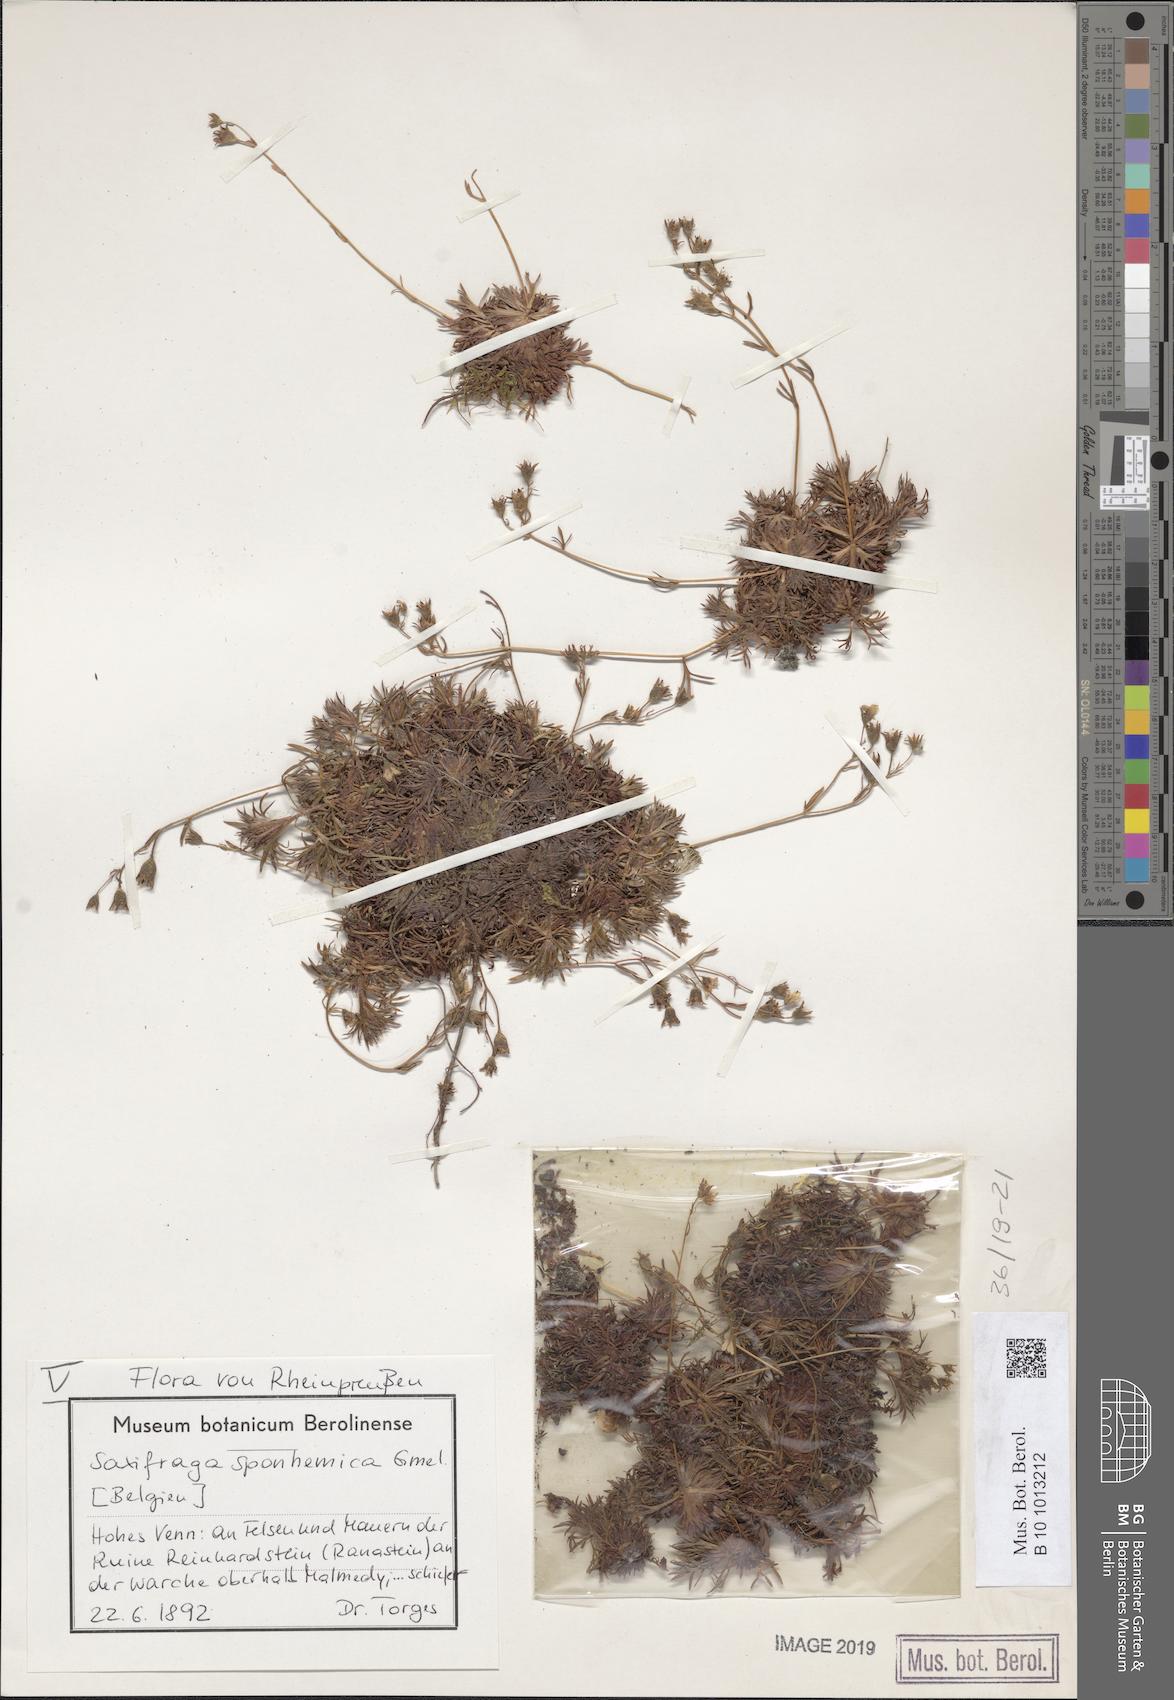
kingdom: Plantae
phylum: Tracheophyta
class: Magnoliopsida
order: Saxifragales
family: Saxifragaceae
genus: Saxifraga
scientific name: Saxifraga rosacea
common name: Irish saxifrage
